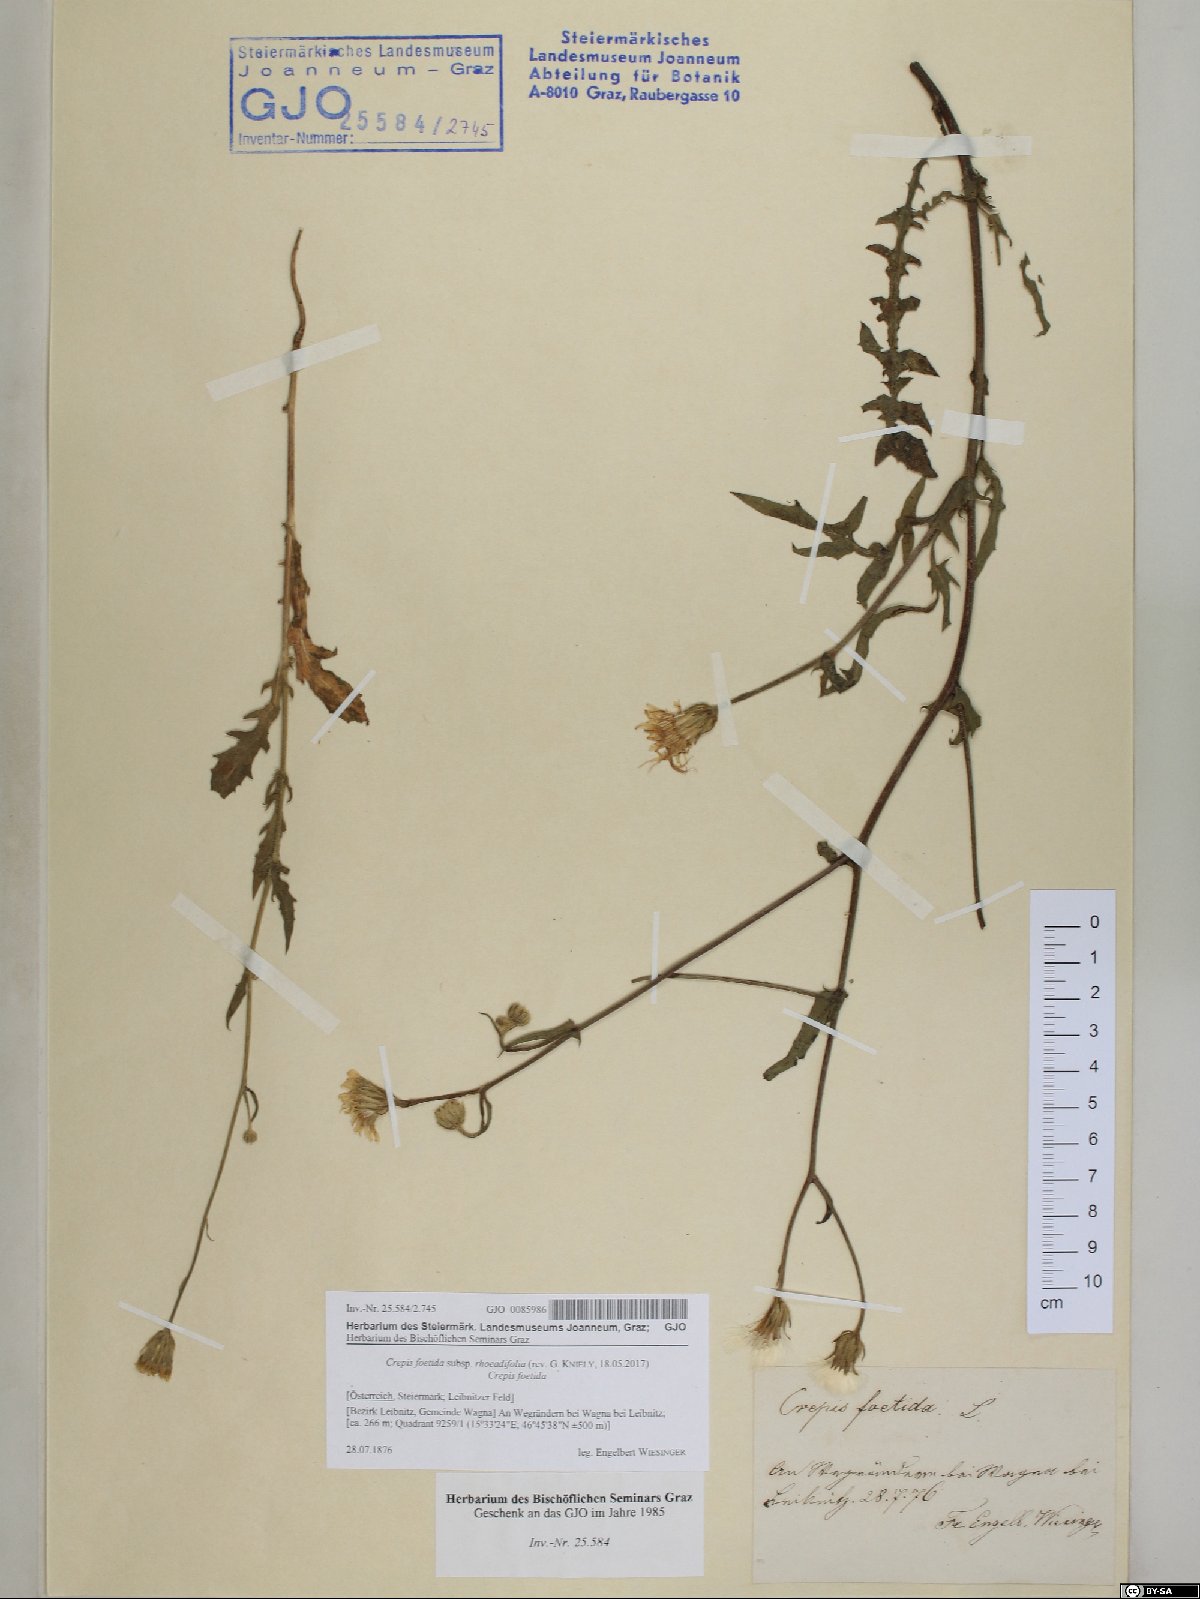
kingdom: Plantae
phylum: Tracheophyta
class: Magnoliopsida
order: Asterales
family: Asteraceae
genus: Crepis
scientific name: Crepis foetida
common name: Stinking hawk's-beard
